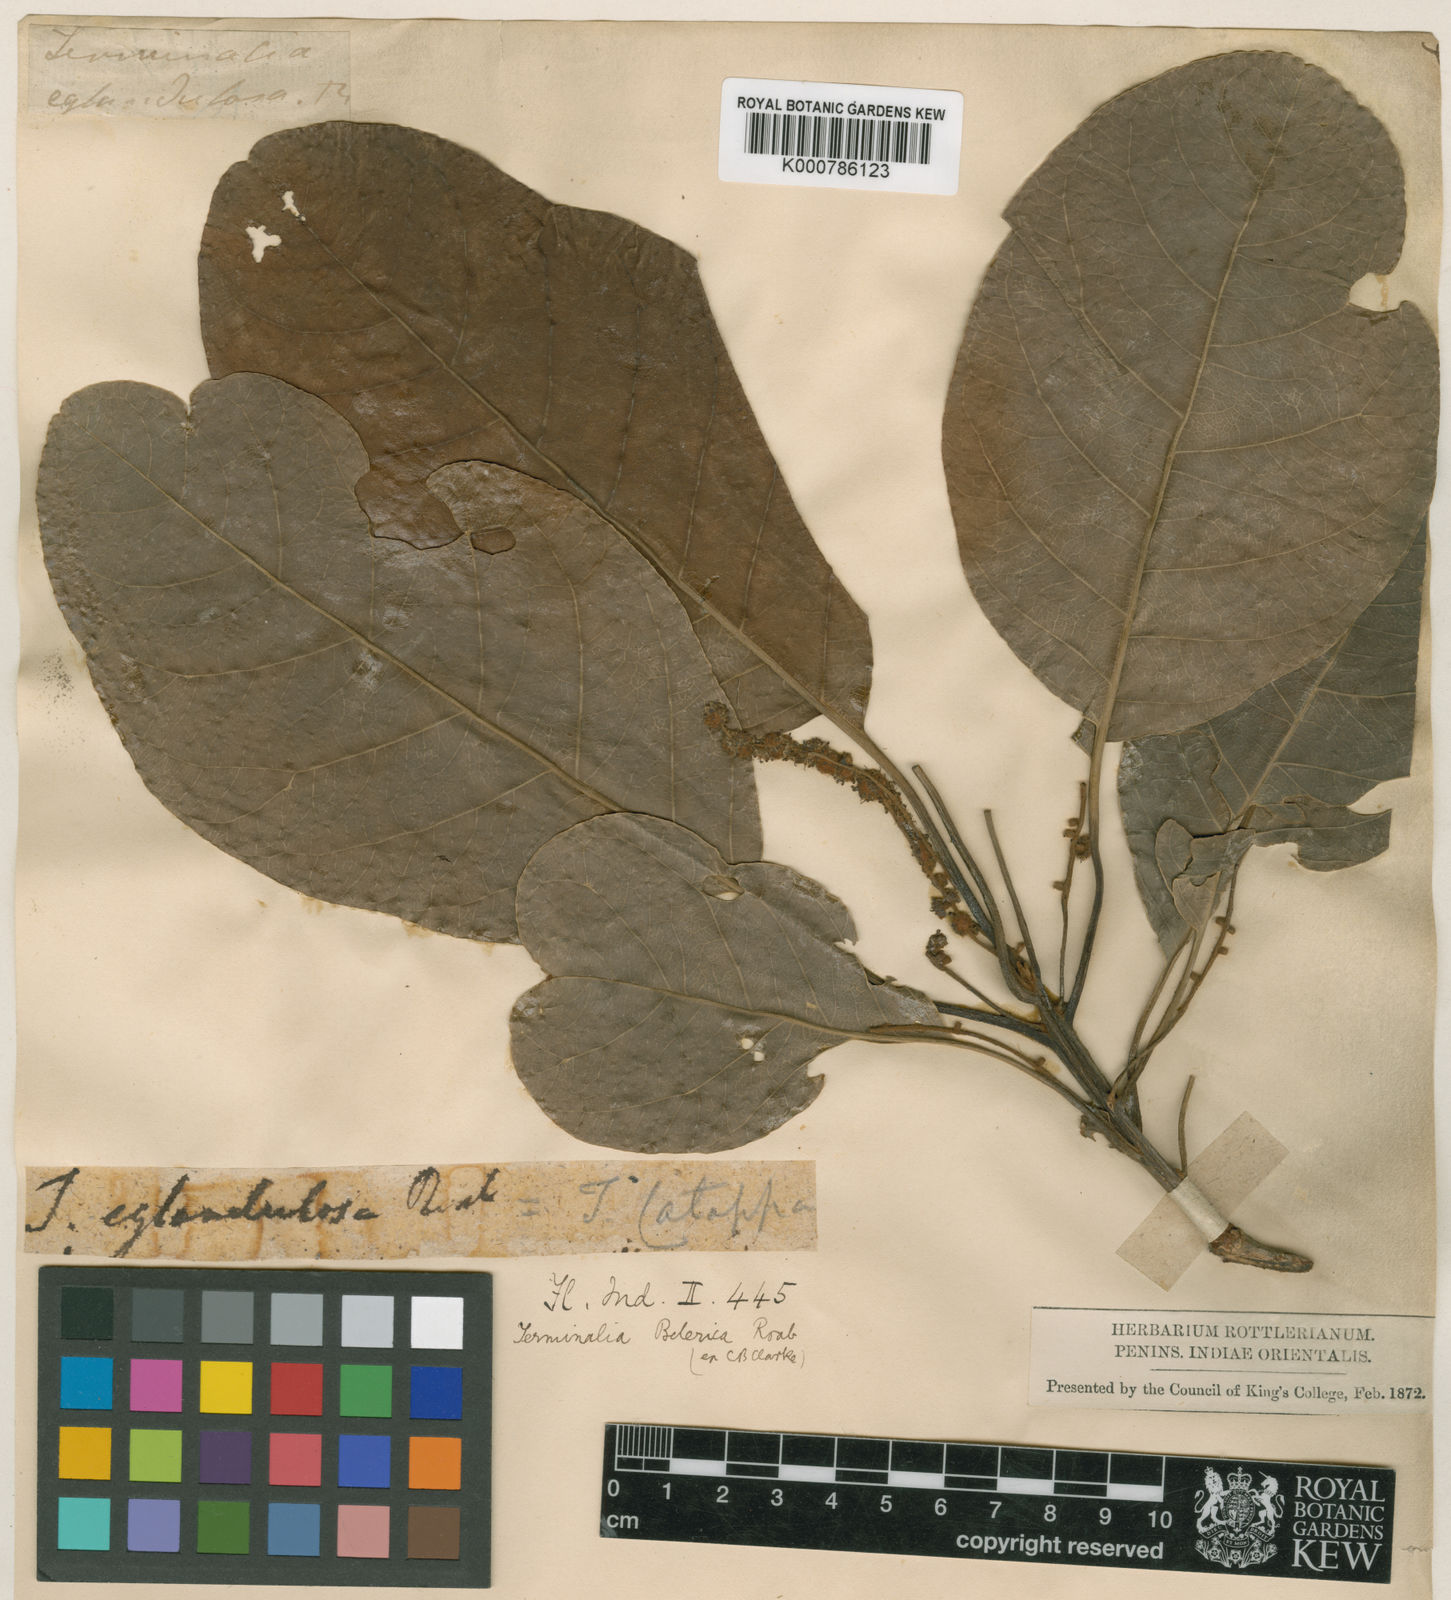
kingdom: Plantae
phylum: Tracheophyta
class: Magnoliopsida
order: Myrtales
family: Combretaceae
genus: Terminalia
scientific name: Terminalia bellirica
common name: Beleric myrobalan
